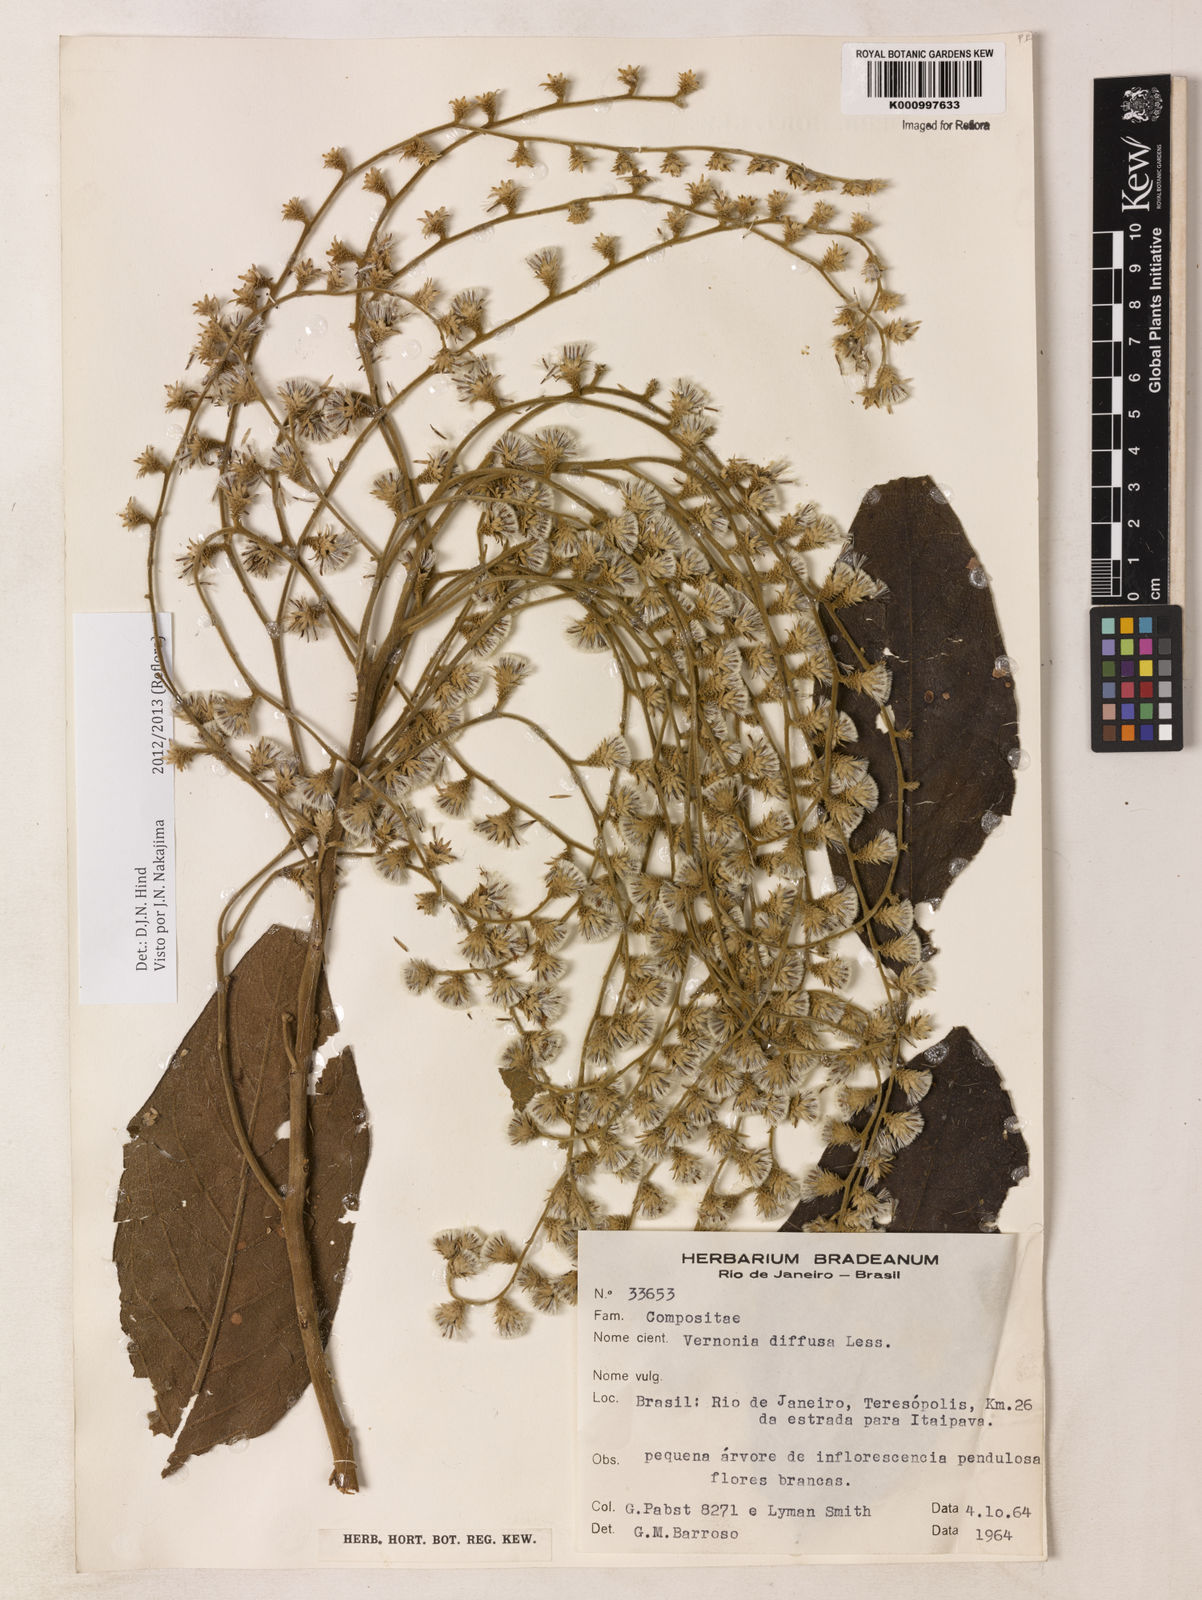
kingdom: Plantae
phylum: Tracheophyta
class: Magnoliopsida
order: Asterales
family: Asteraceae
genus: Vernonanthura
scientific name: Vernonanthura divaricata
